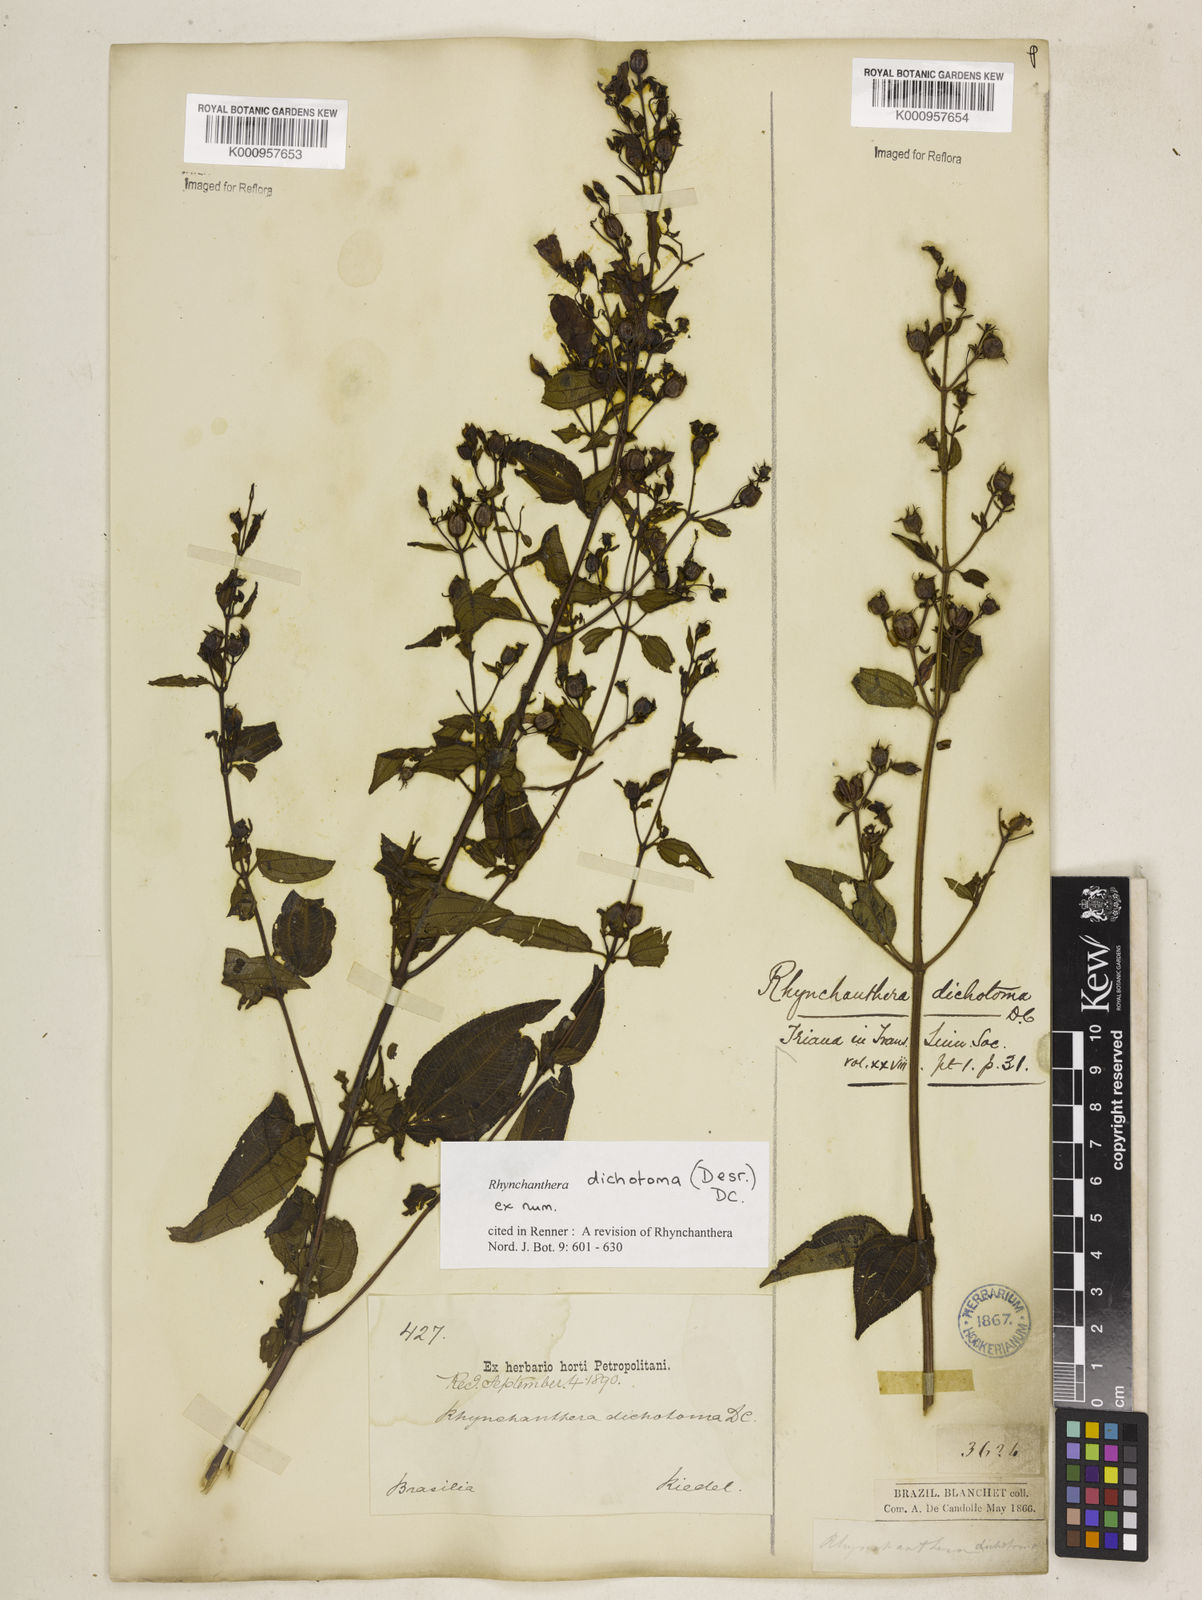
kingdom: Plantae
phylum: Tracheophyta
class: Magnoliopsida
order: Myrtales
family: Melastomataceae
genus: Rhynchanthera
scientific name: Rhynchanthera dichotoma
